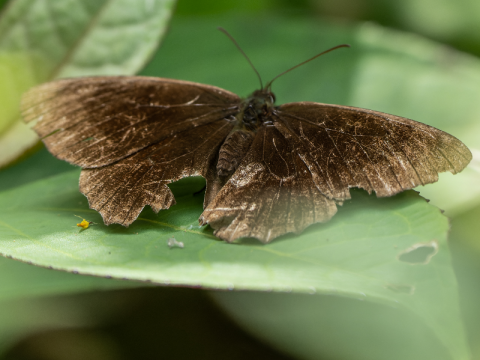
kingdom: Animalia
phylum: Arthropoda
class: Insecta
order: Lepidoptera
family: Nymphalidae
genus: Pedaliodes
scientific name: Pedaliodes manneja
